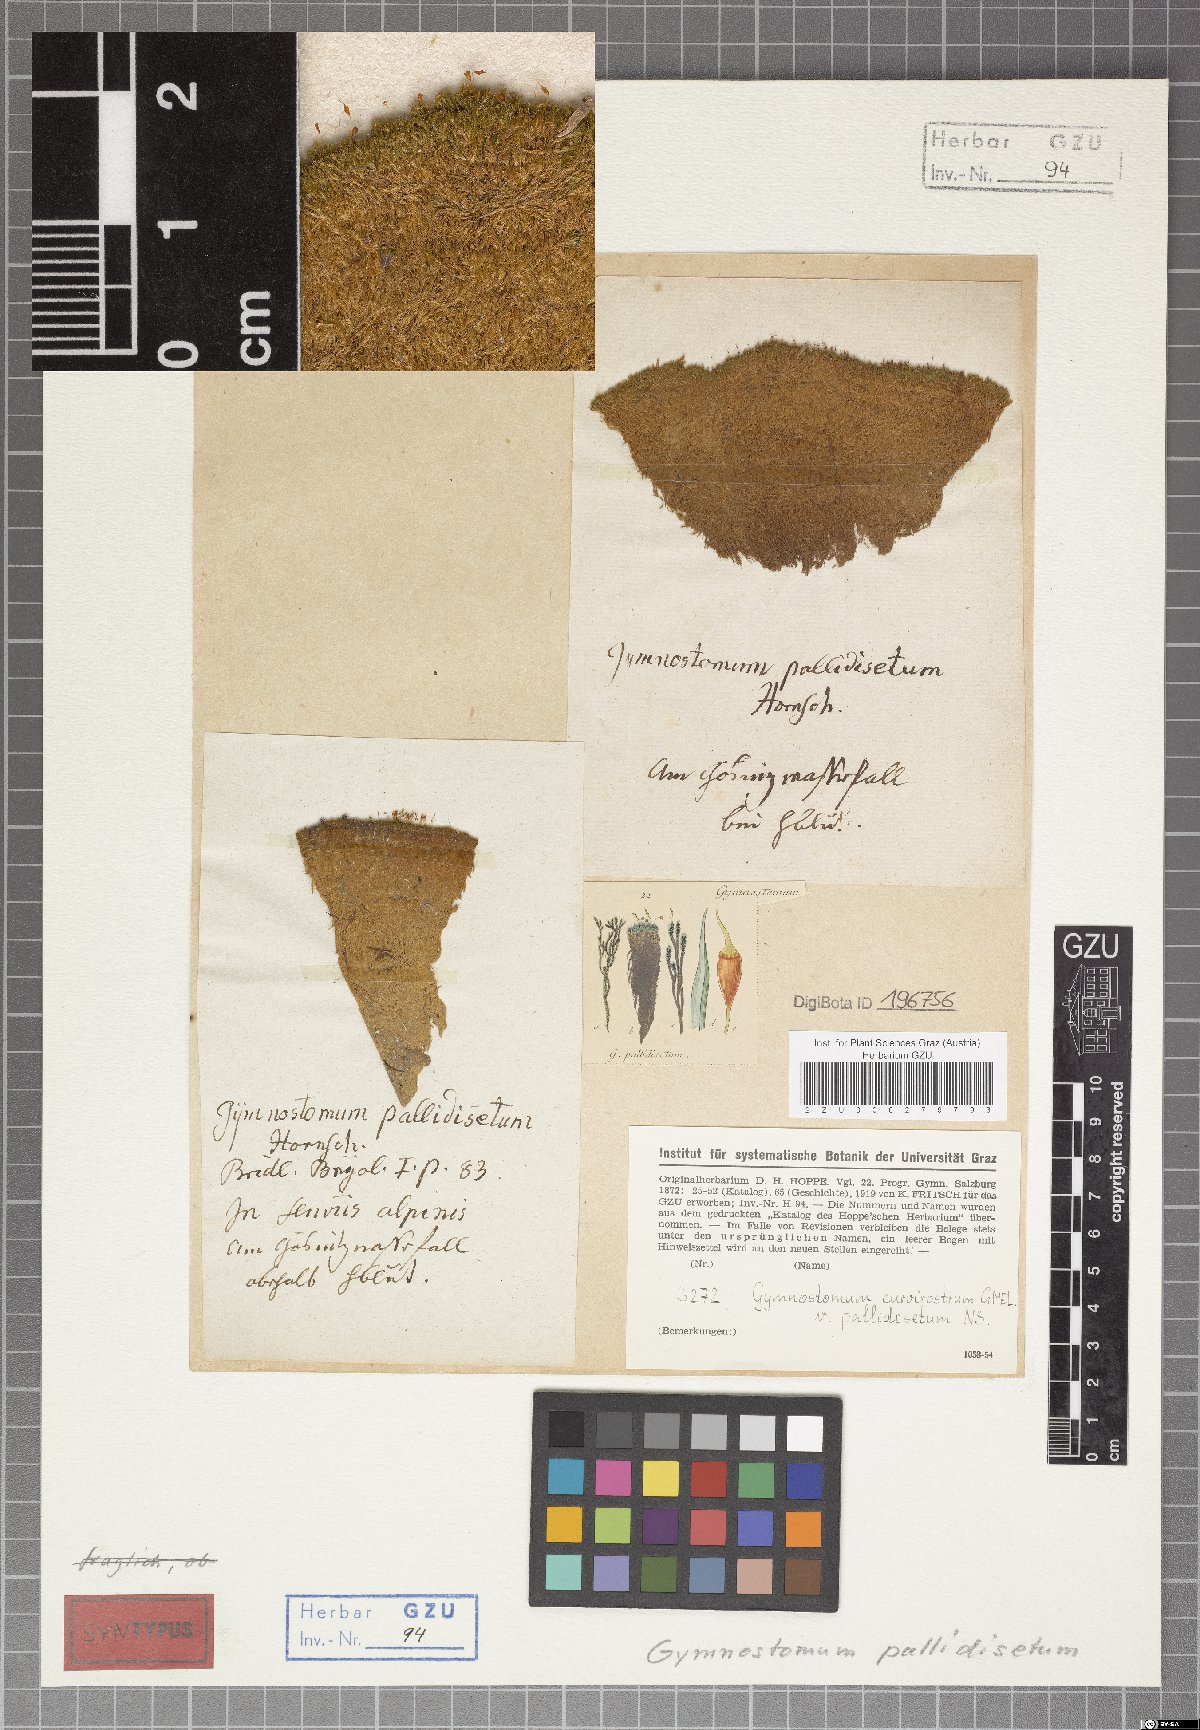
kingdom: Plantae
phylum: Bryophyta
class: Bryopsida
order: Pottiales
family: Pottiaceae
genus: Hymenostylium
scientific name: Hymenostylium recurvirostrum
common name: Hook-beak tufa-moss
